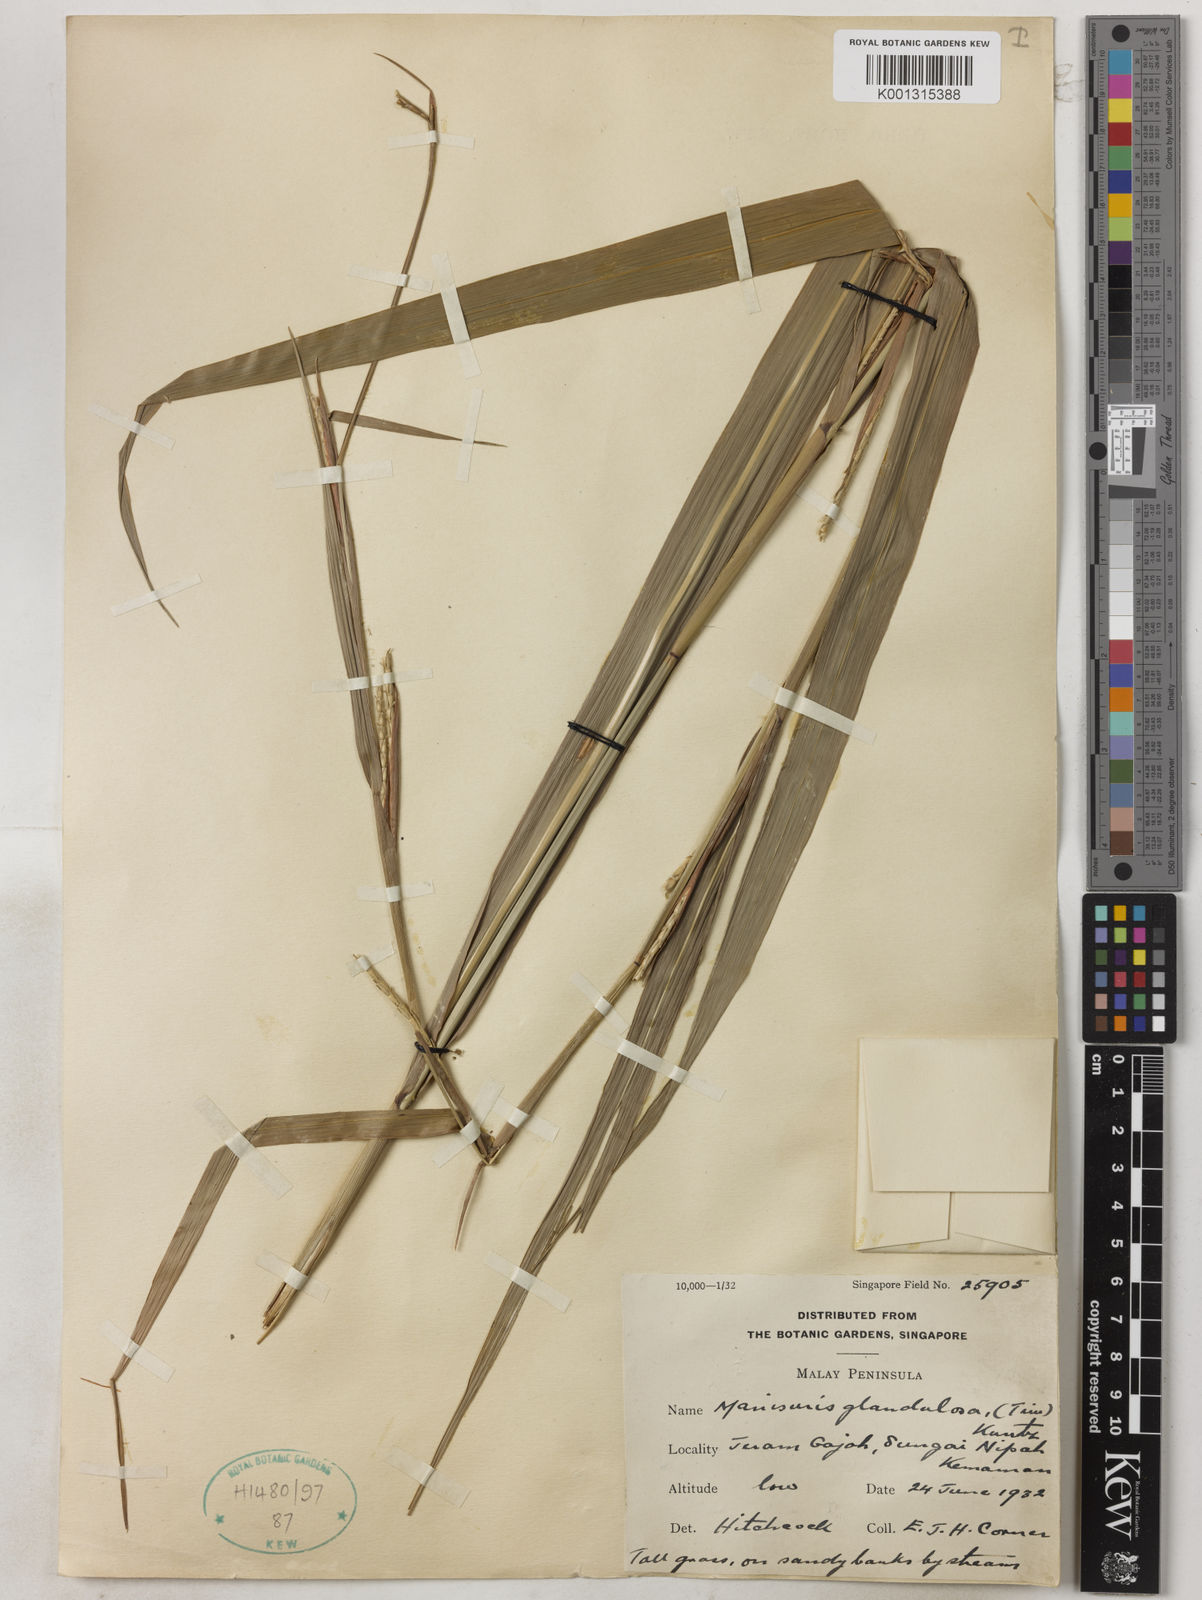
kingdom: Plantae
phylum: Tracheophyta
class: Liliopsida
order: Poales
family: Poaceae
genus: Rottboellia
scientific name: Rottboellia glandulosa
